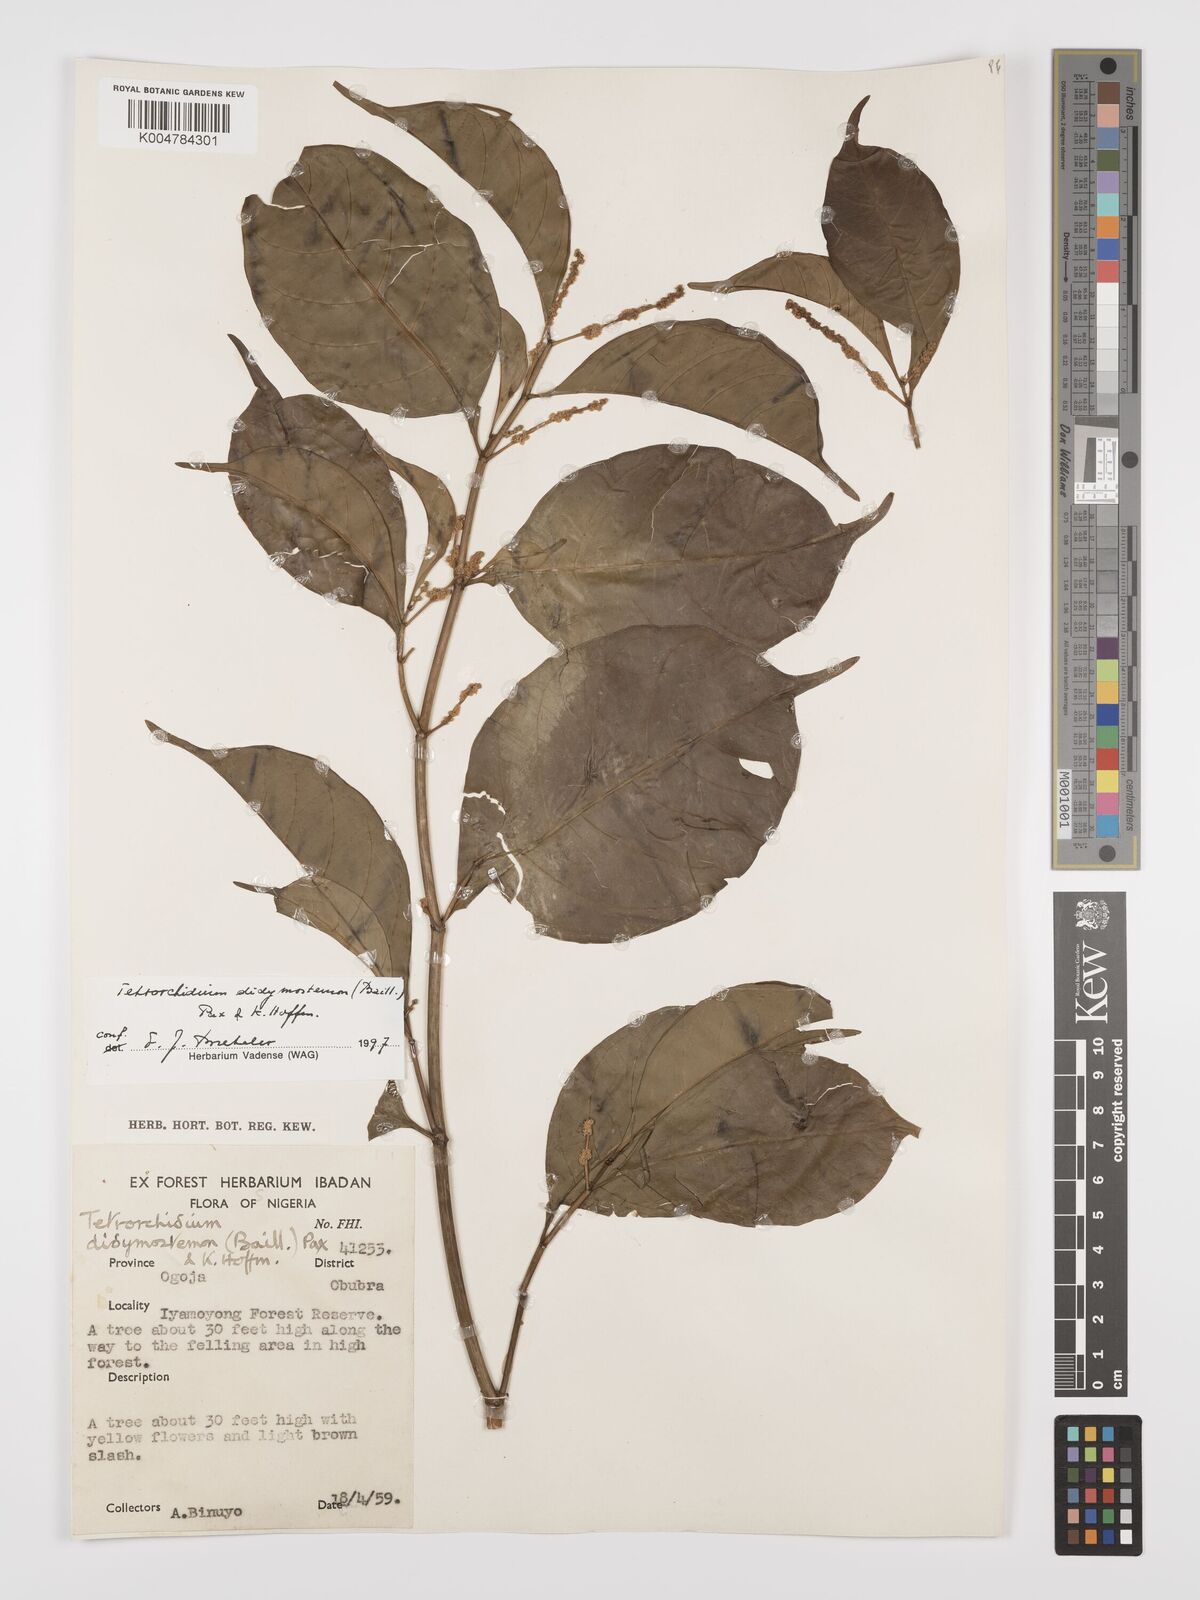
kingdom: Plantae
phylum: Tracheophyta
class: Magnoliopsida
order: Malpighiales
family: Euphorbiaceae
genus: Tetrorchidium
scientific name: Tetrorchidium didymostemon
